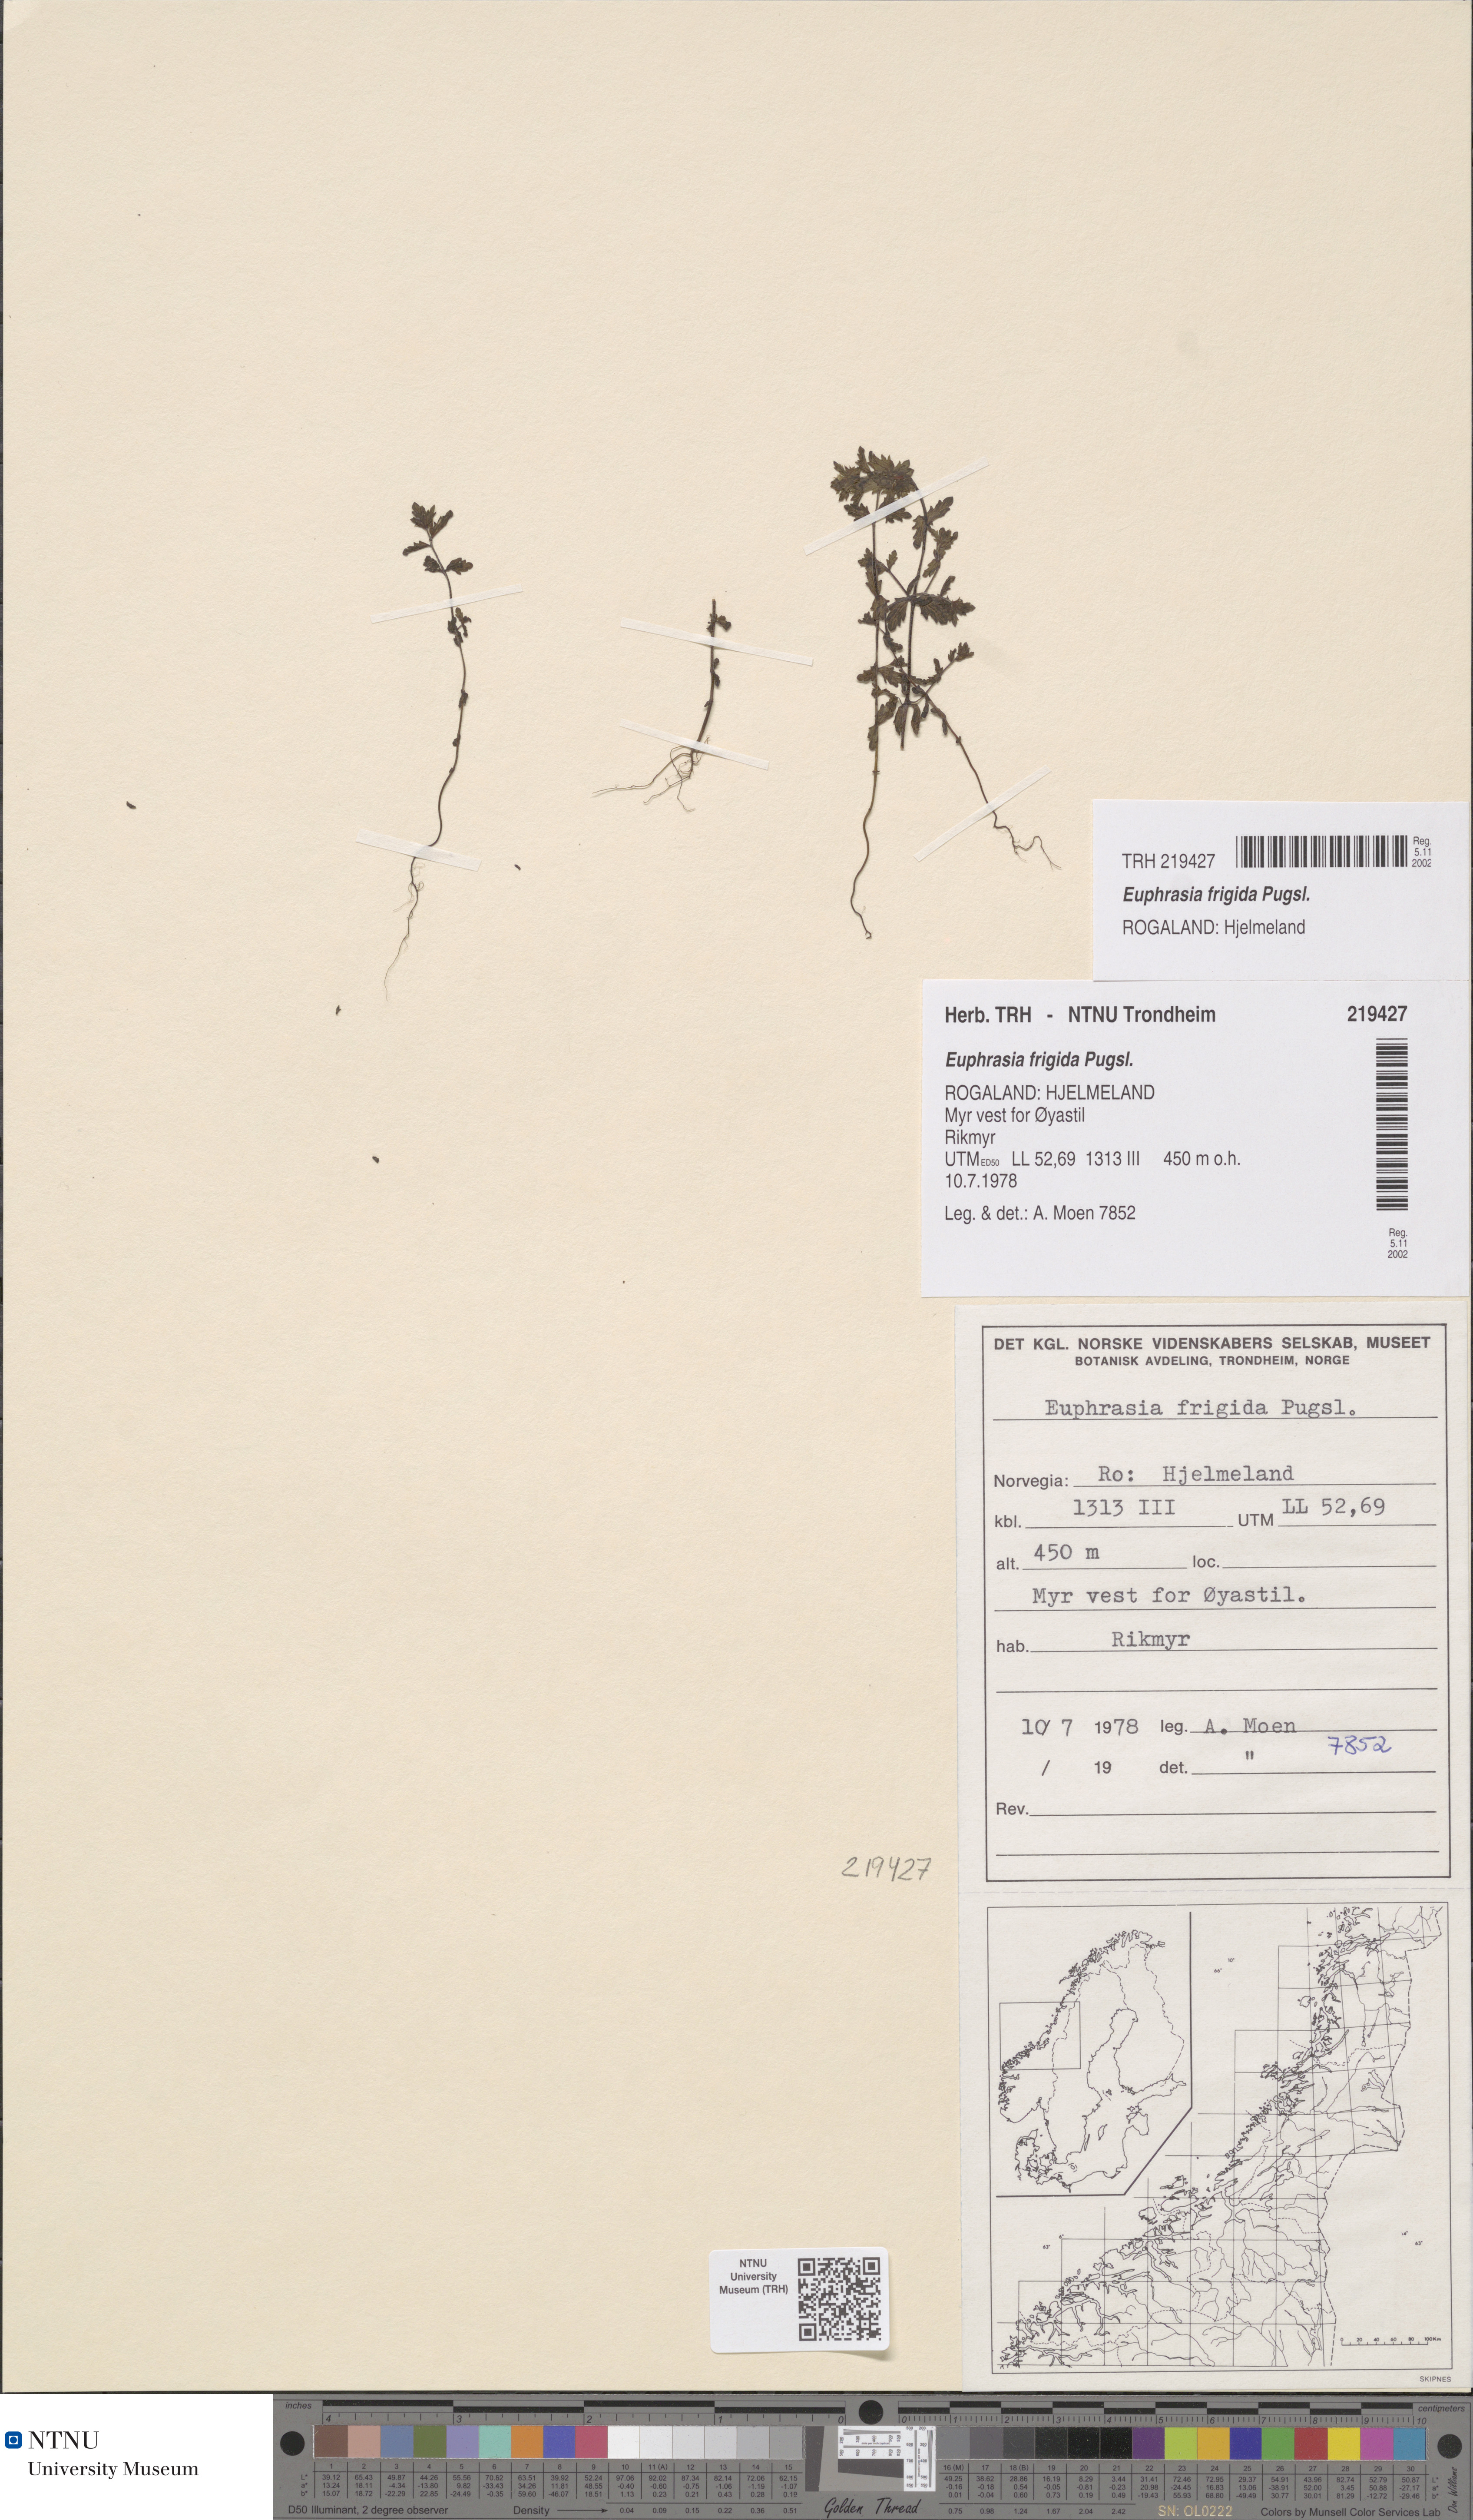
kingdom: Plantae
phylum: Tracheophyta
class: Magnoliopsida
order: Lamiales
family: Orobanchaceae
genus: Euphrasia
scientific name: Euphrasia wettsteinii
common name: Wettstein's eyebright
